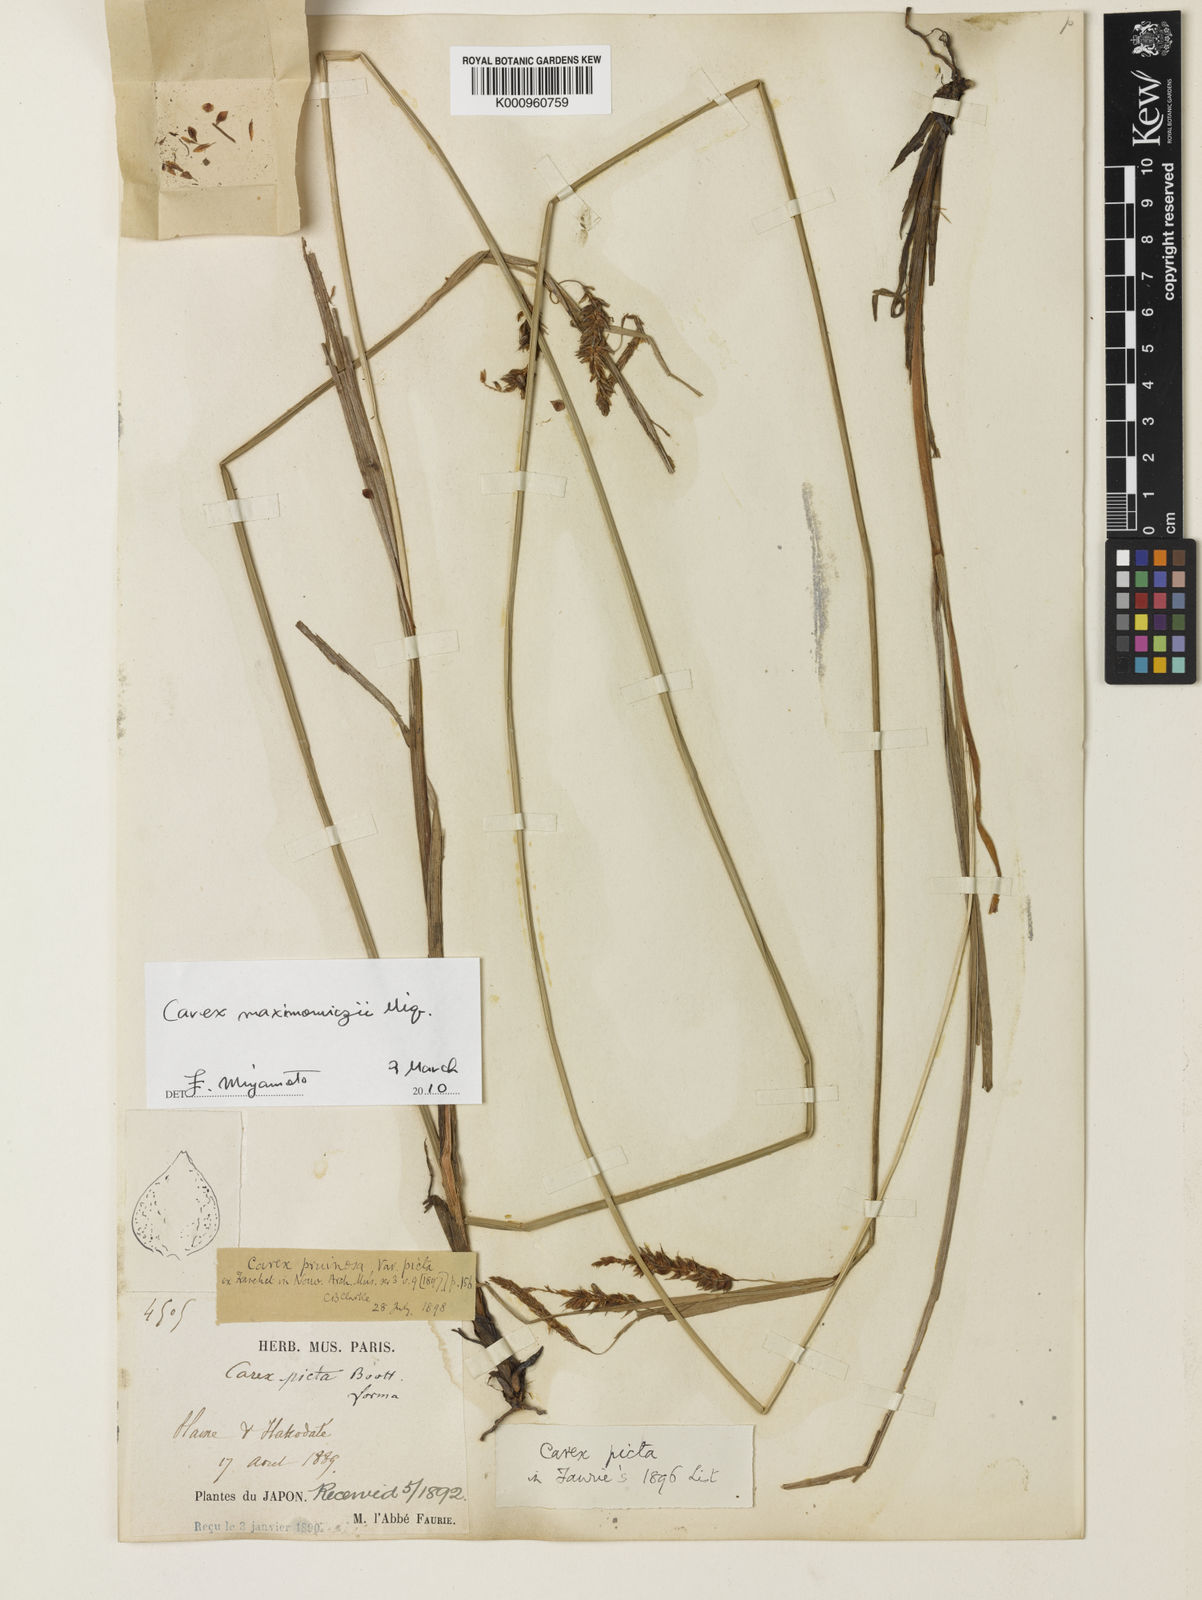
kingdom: Plantae
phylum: Tracheophyta
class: Liliopsida
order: Poales
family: Cyperaceae
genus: Carex
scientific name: Carex pruinosa
